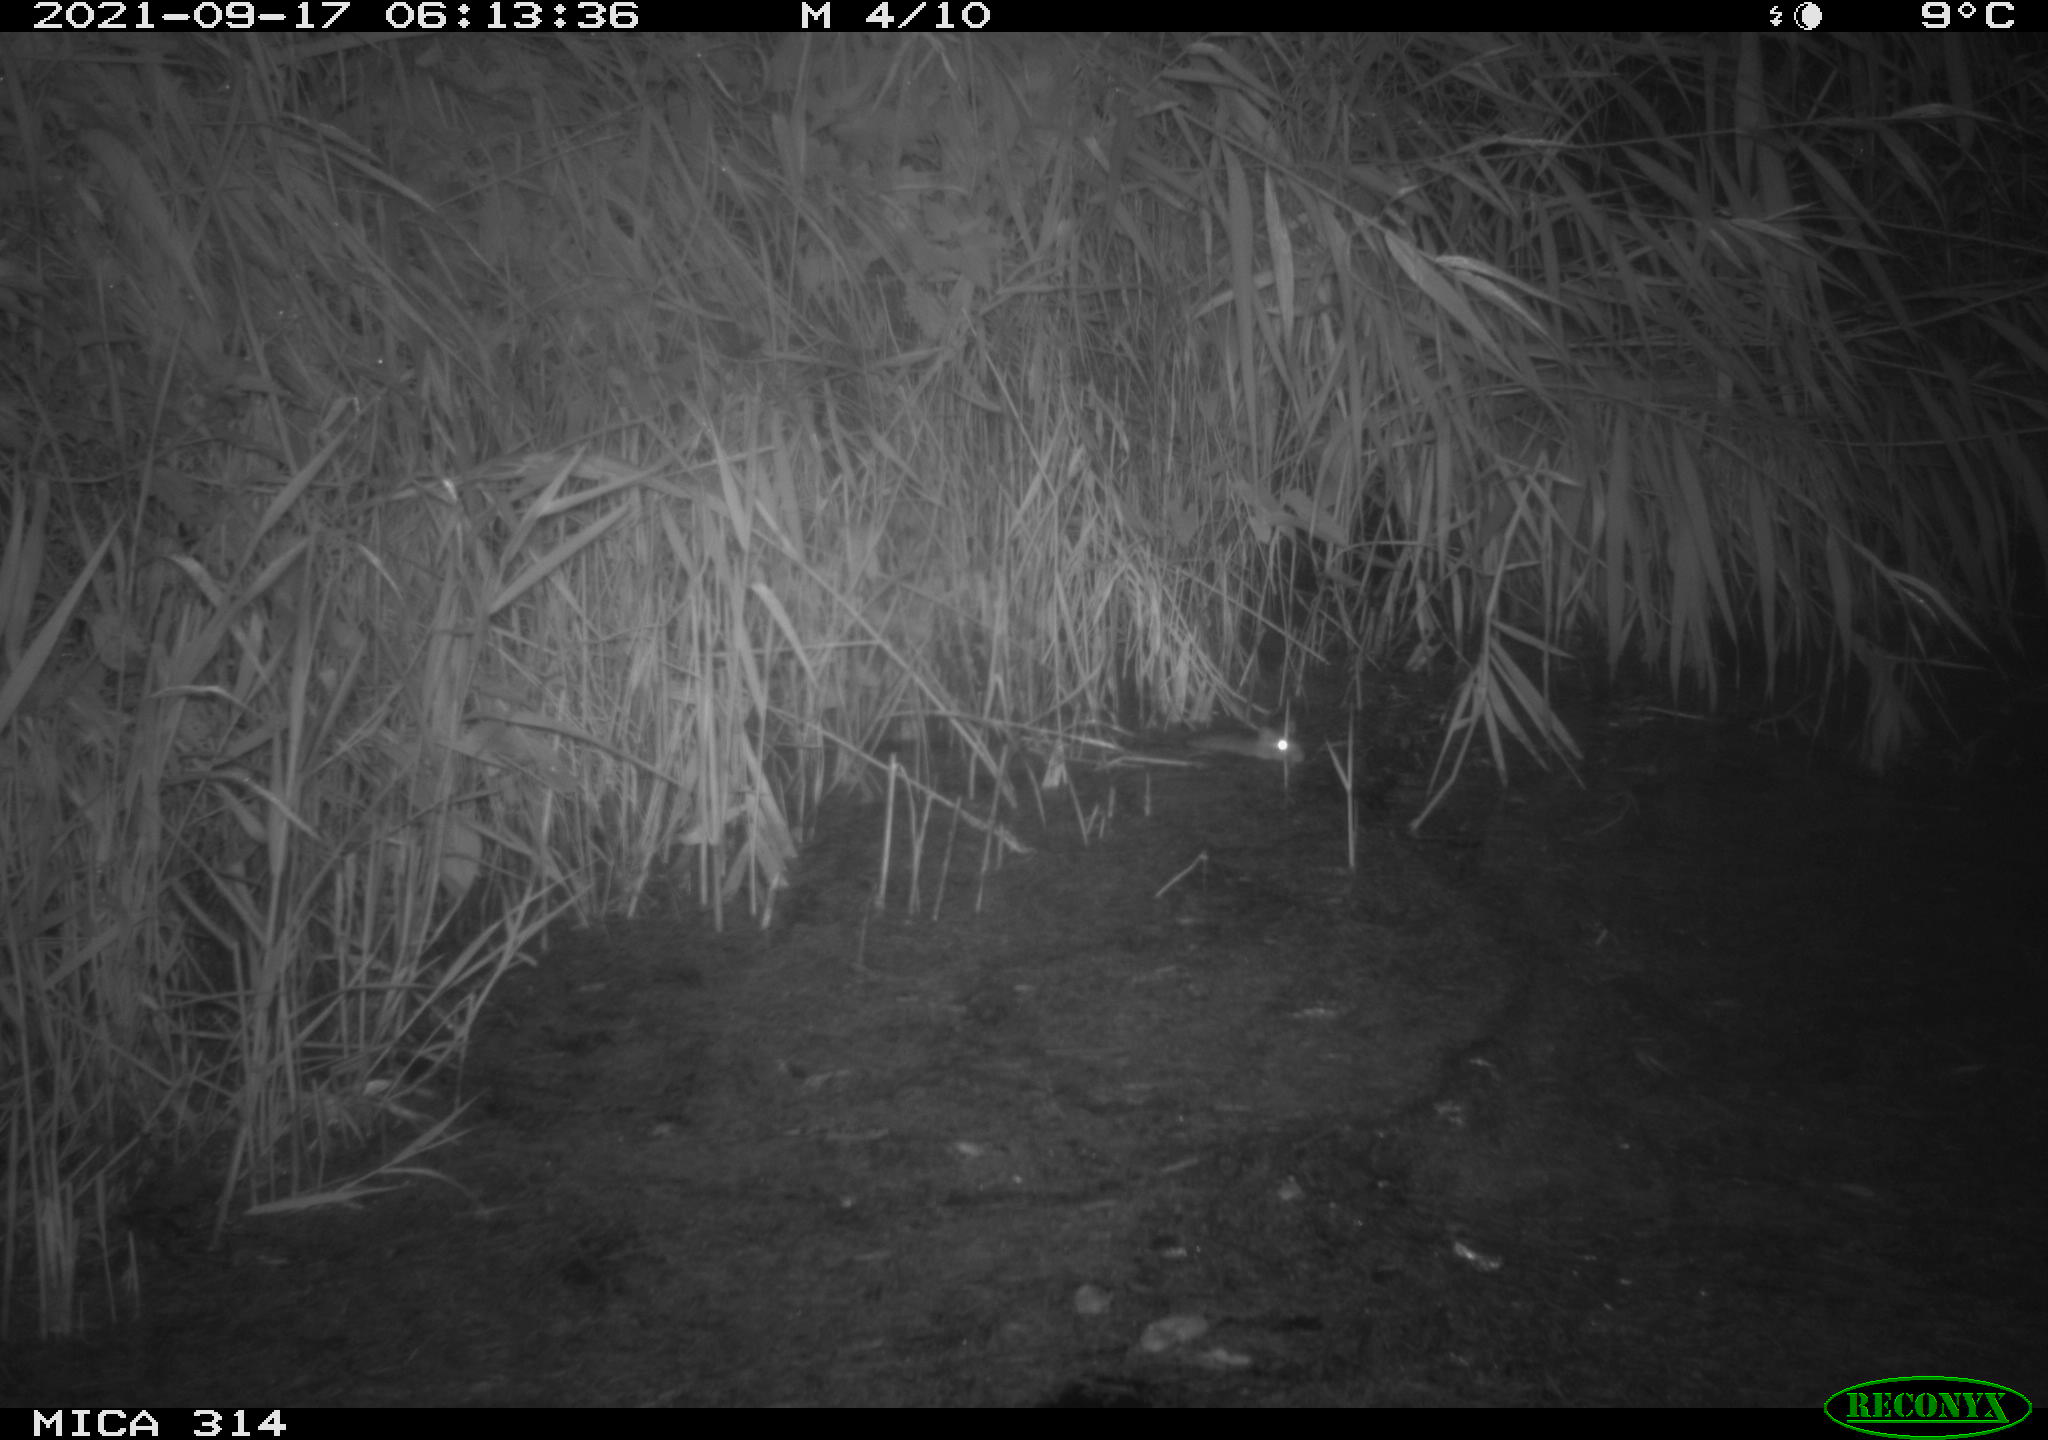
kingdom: Animalia
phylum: Chordata
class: Mammalia
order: Rodentia
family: Muridae
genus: Rattus
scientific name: Rattus norvegicus
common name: Brown rat
